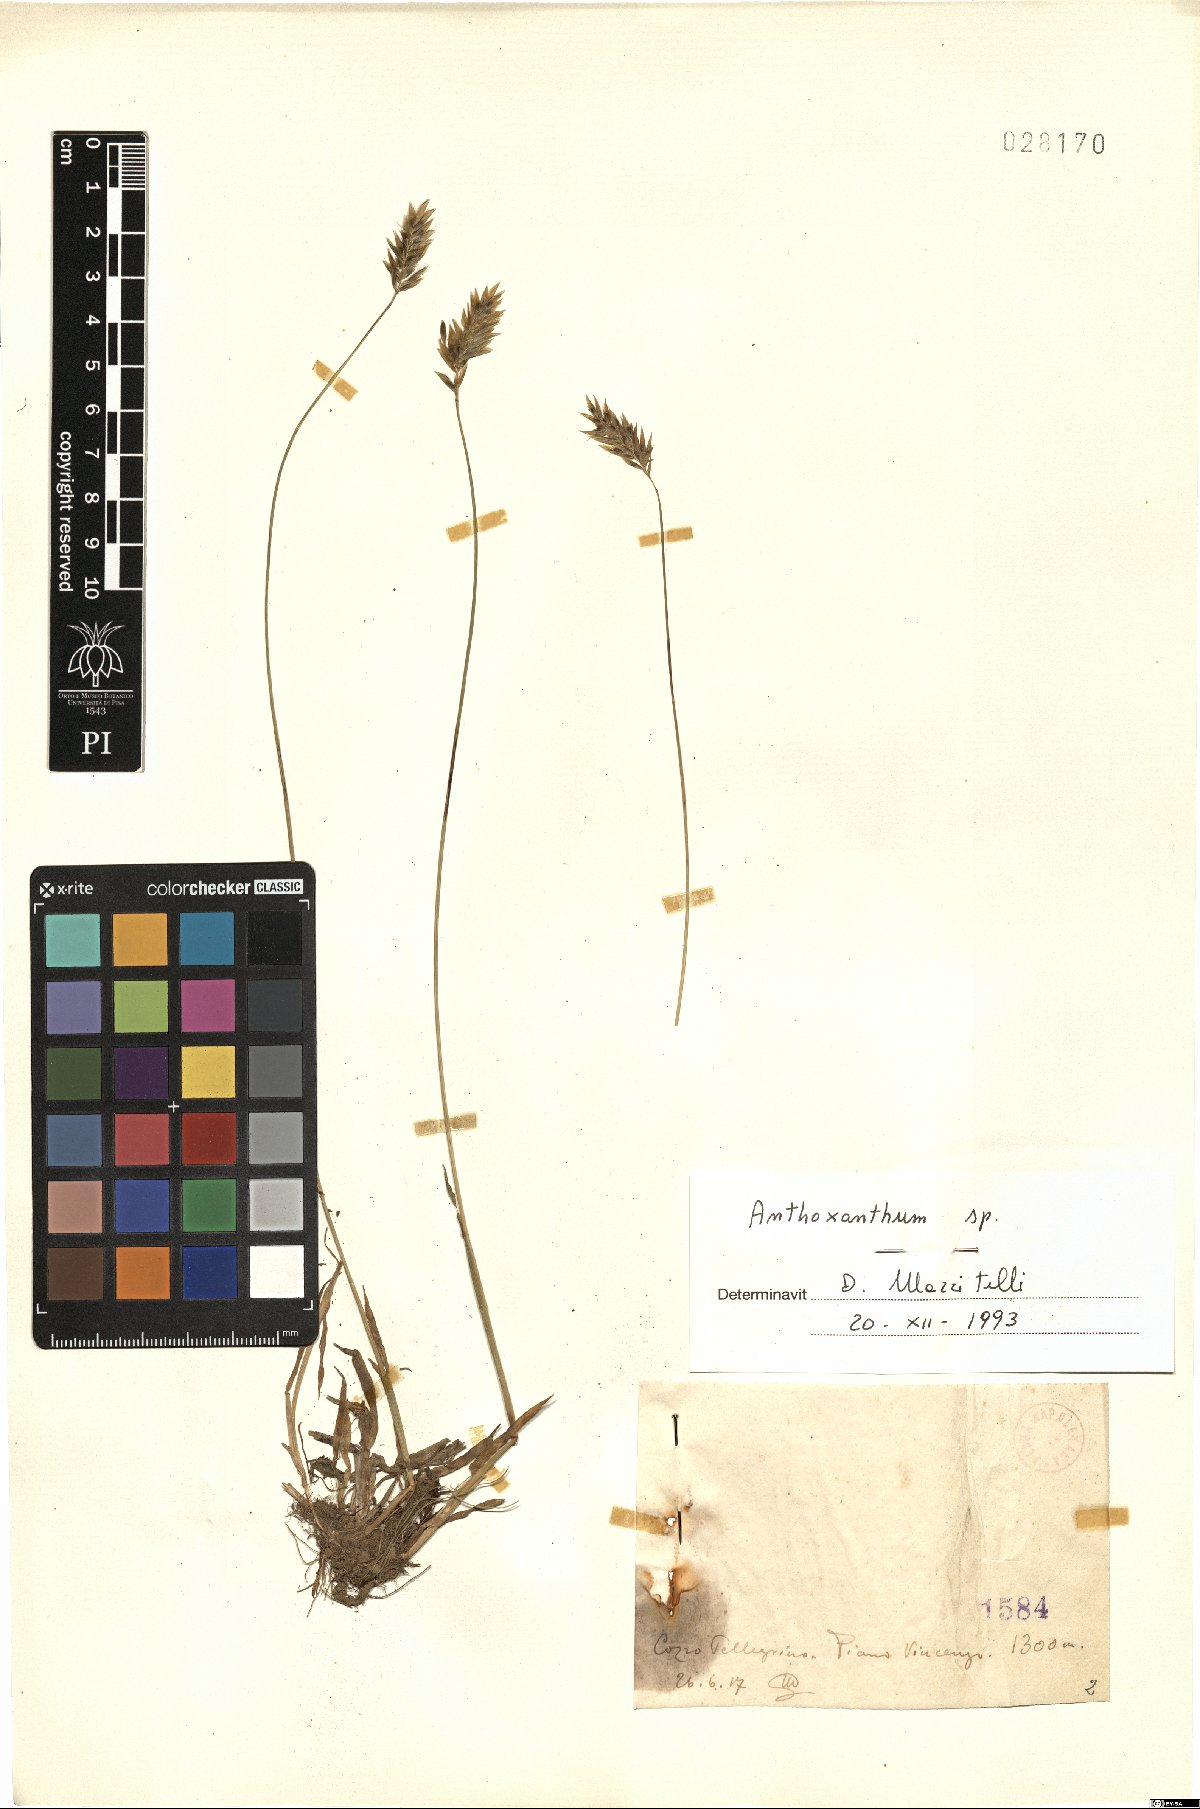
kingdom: Plantae
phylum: Tracheophyta
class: Liliopsida
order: Poales
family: Poaceae
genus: Anthoxanthum
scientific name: Anthoxanthum
